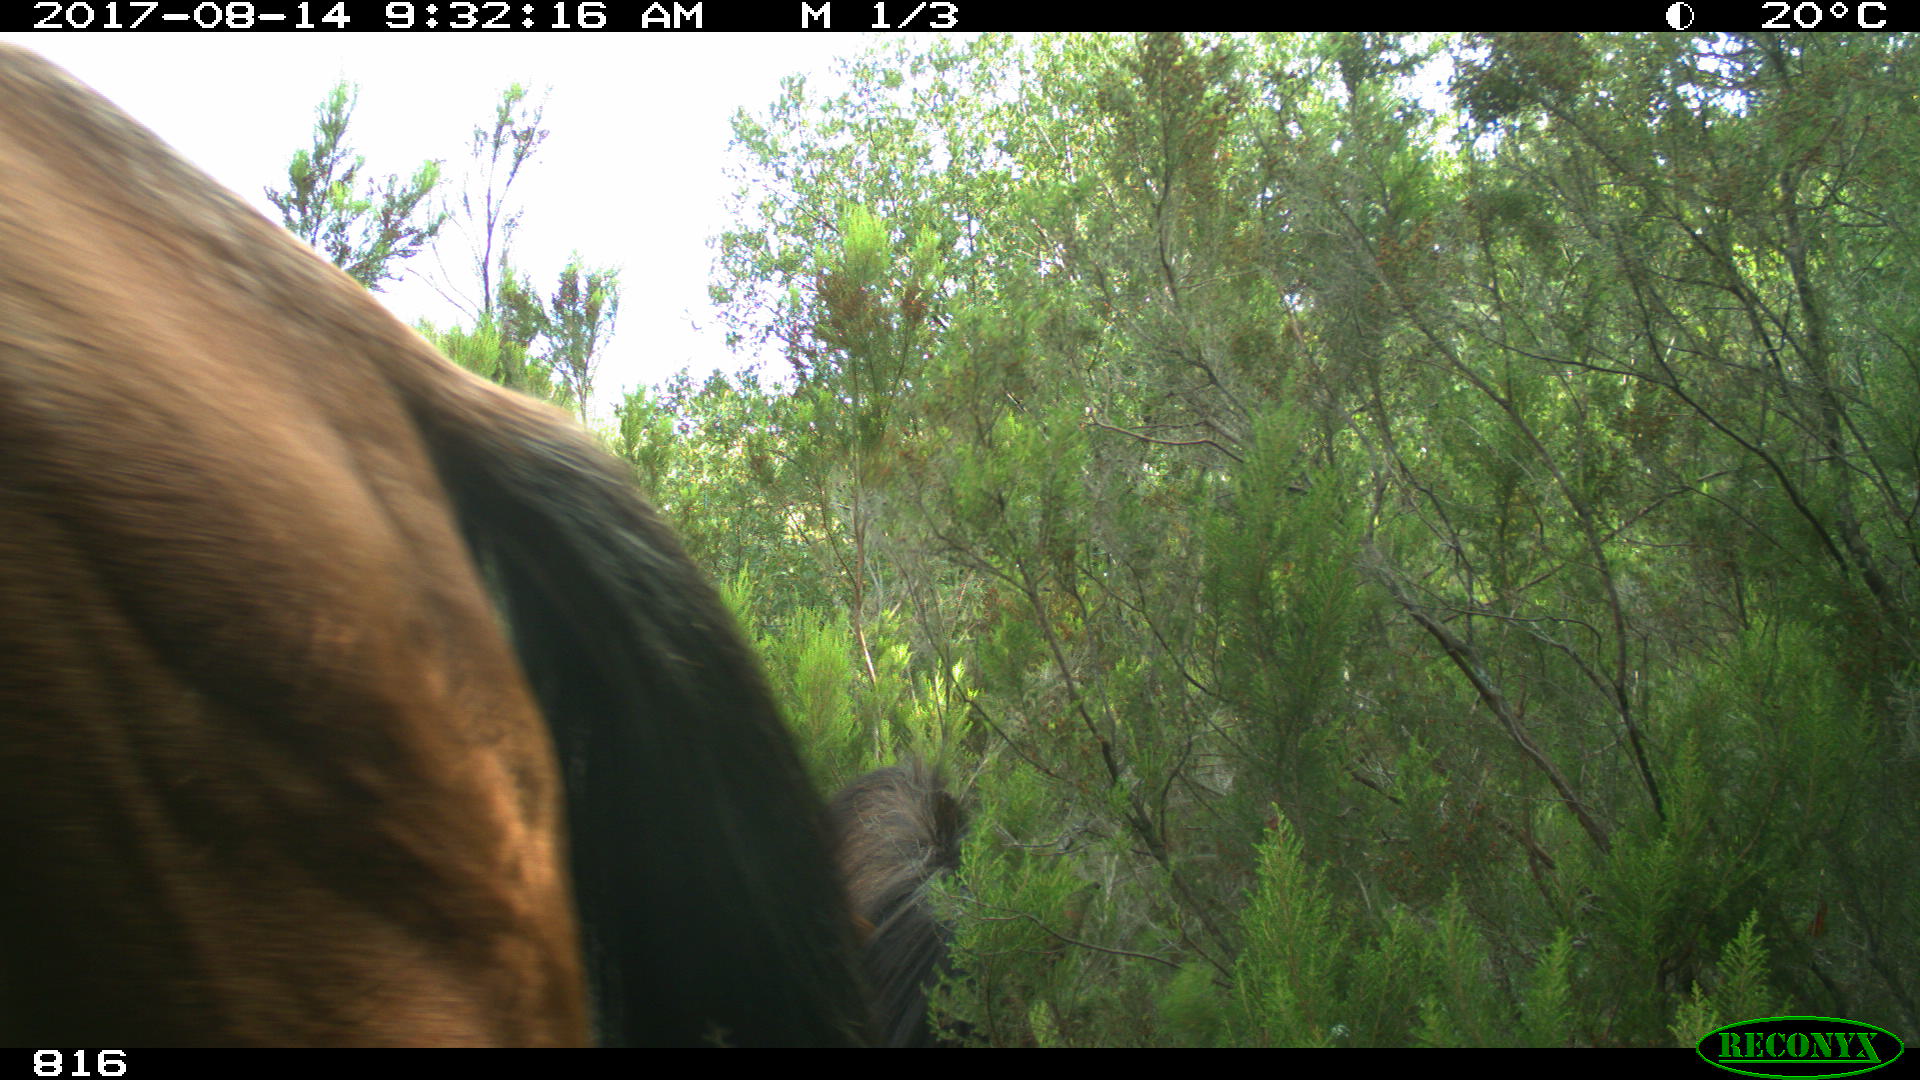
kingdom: Animalia
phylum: Chordata
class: Mammalia
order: Perissodactyla
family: Equidae
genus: Equus
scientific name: Equus caballus
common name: Horse
